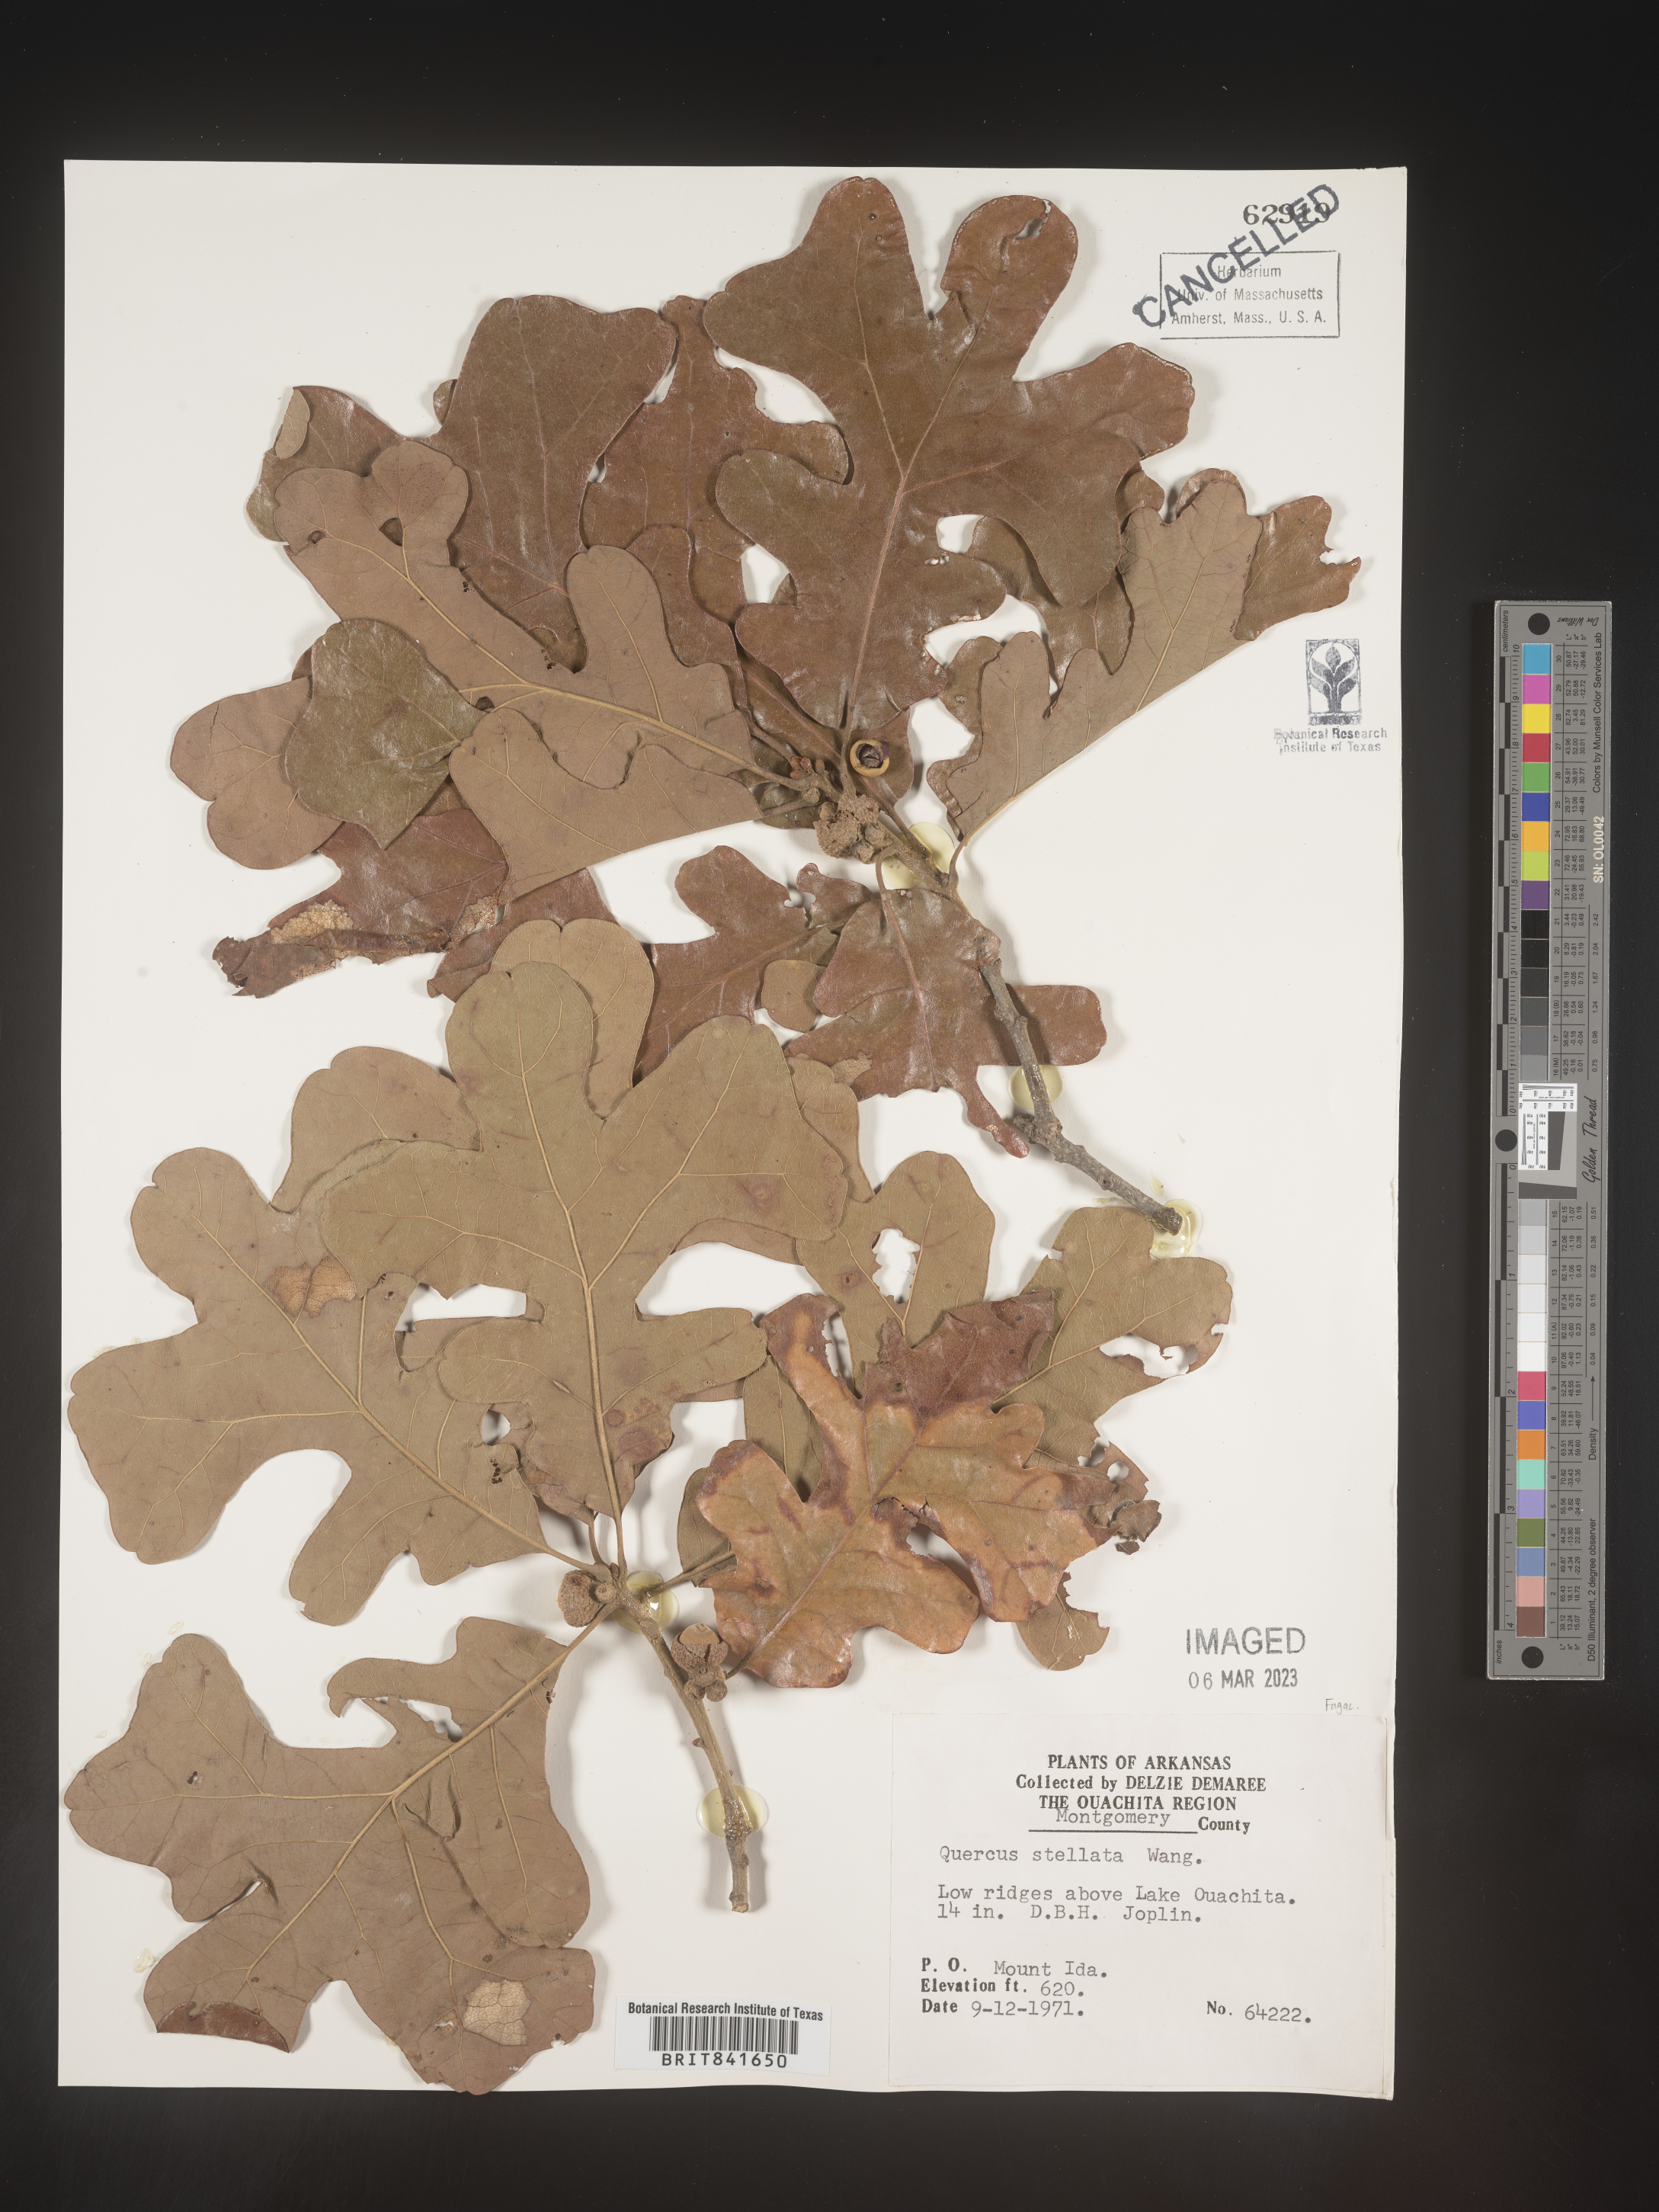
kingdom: Plantae
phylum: Tracheophyta
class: Magnoliopsida
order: Fagales
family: Fagaceae
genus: Quercus
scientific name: Quercus stellata
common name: Post oak
